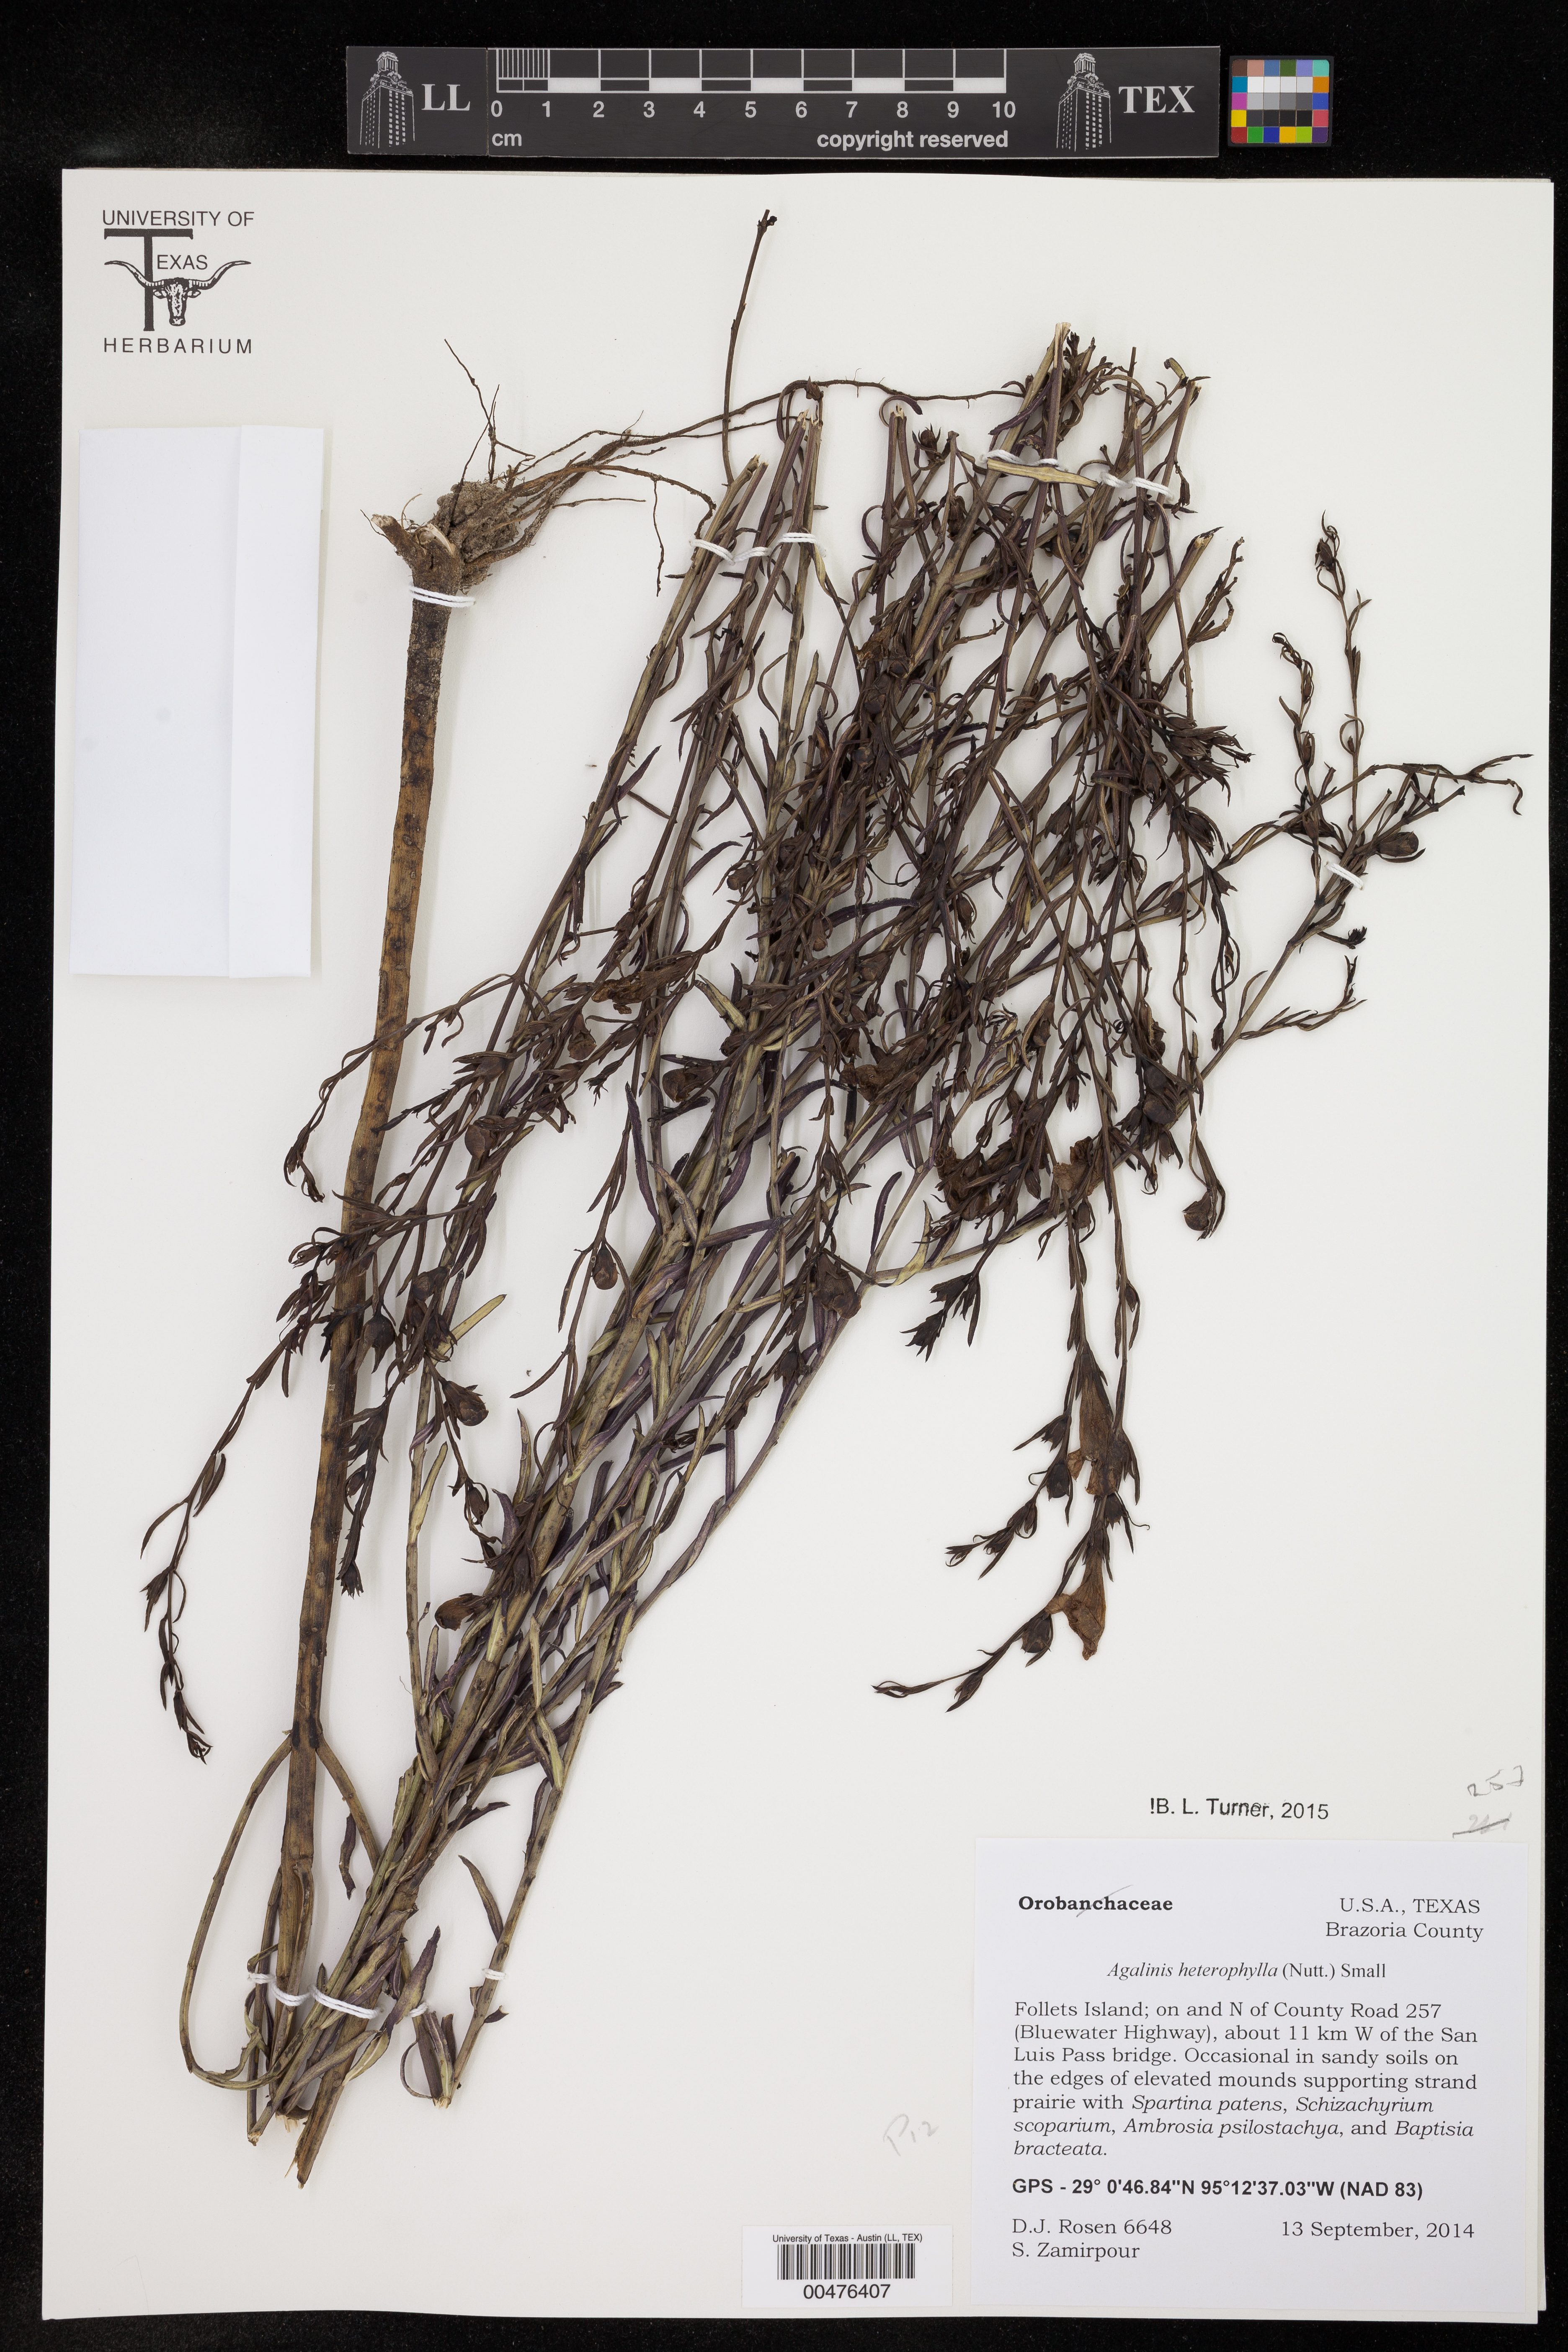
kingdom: Plantae
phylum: Tracheophyta
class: Magnoliopsida
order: Lamiales
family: Orobanchaceae
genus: Agalinis
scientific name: Agalinis heterophylla
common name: Prairie agalinis
